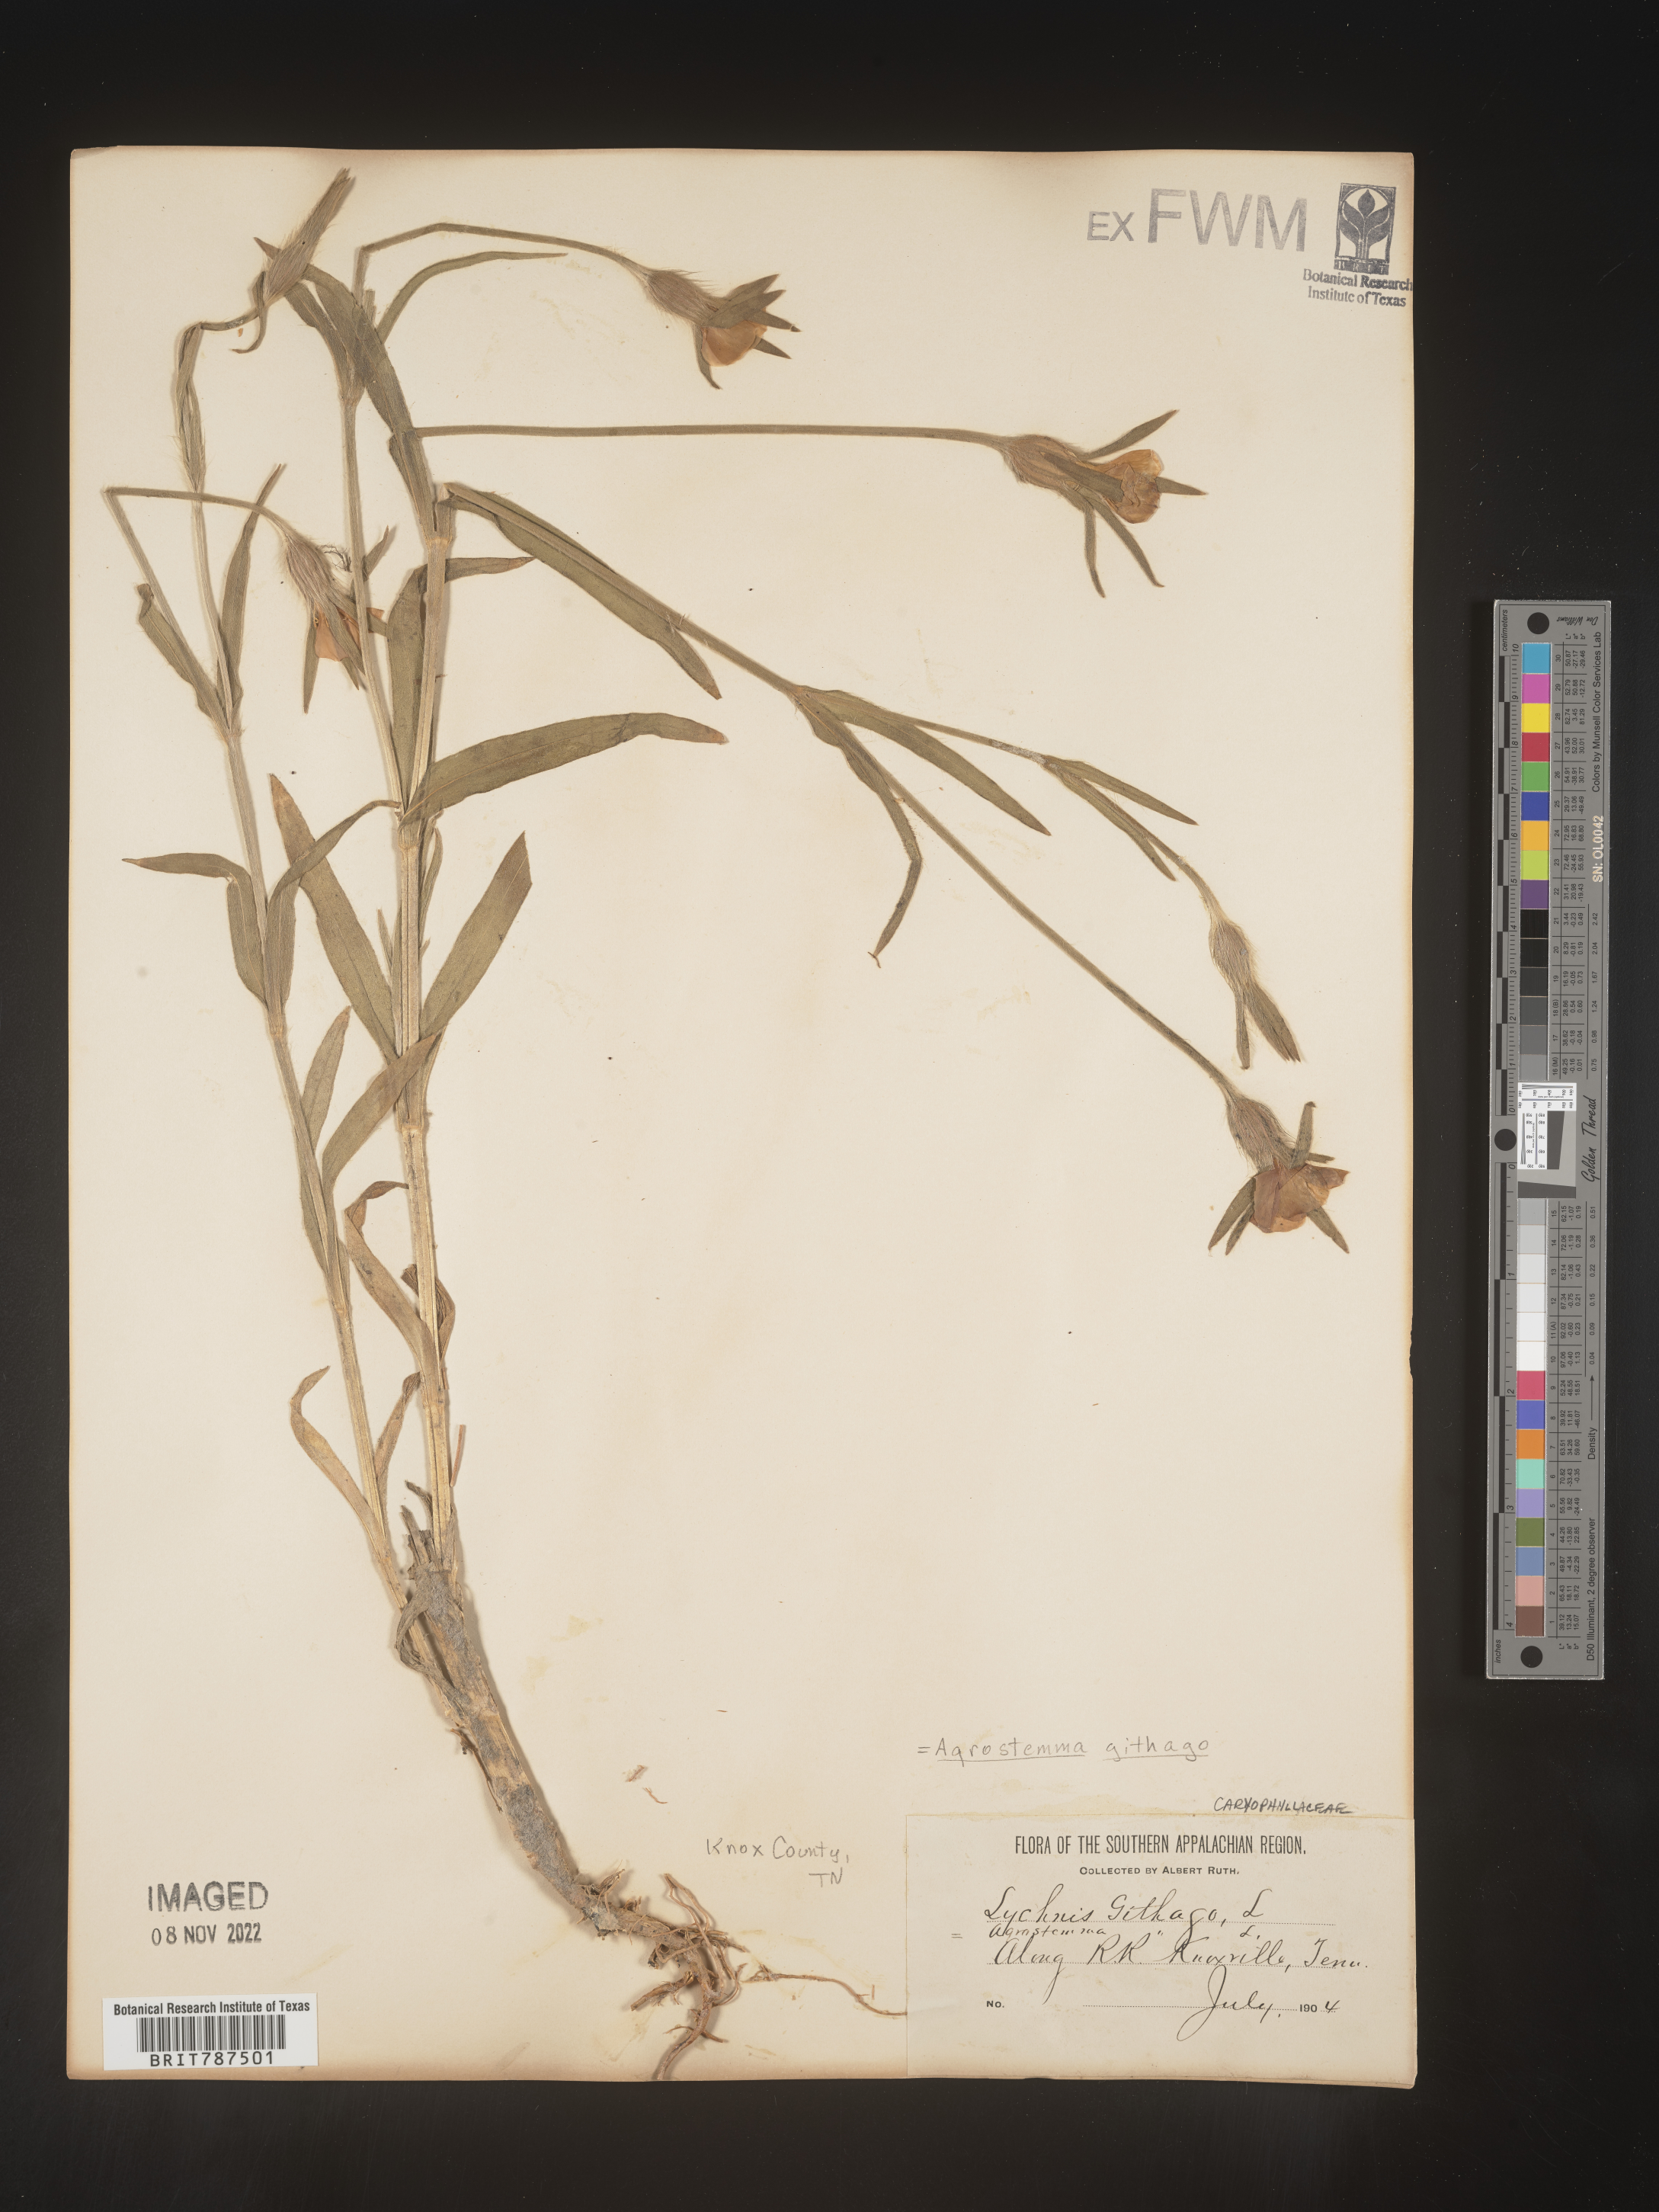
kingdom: Plantae
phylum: Tracheophyta
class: Magnoliopsida
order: Caryophyllales
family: Caryophyllaceae
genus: Agrostemma
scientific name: Agrostemma githago
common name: Common corncockle
